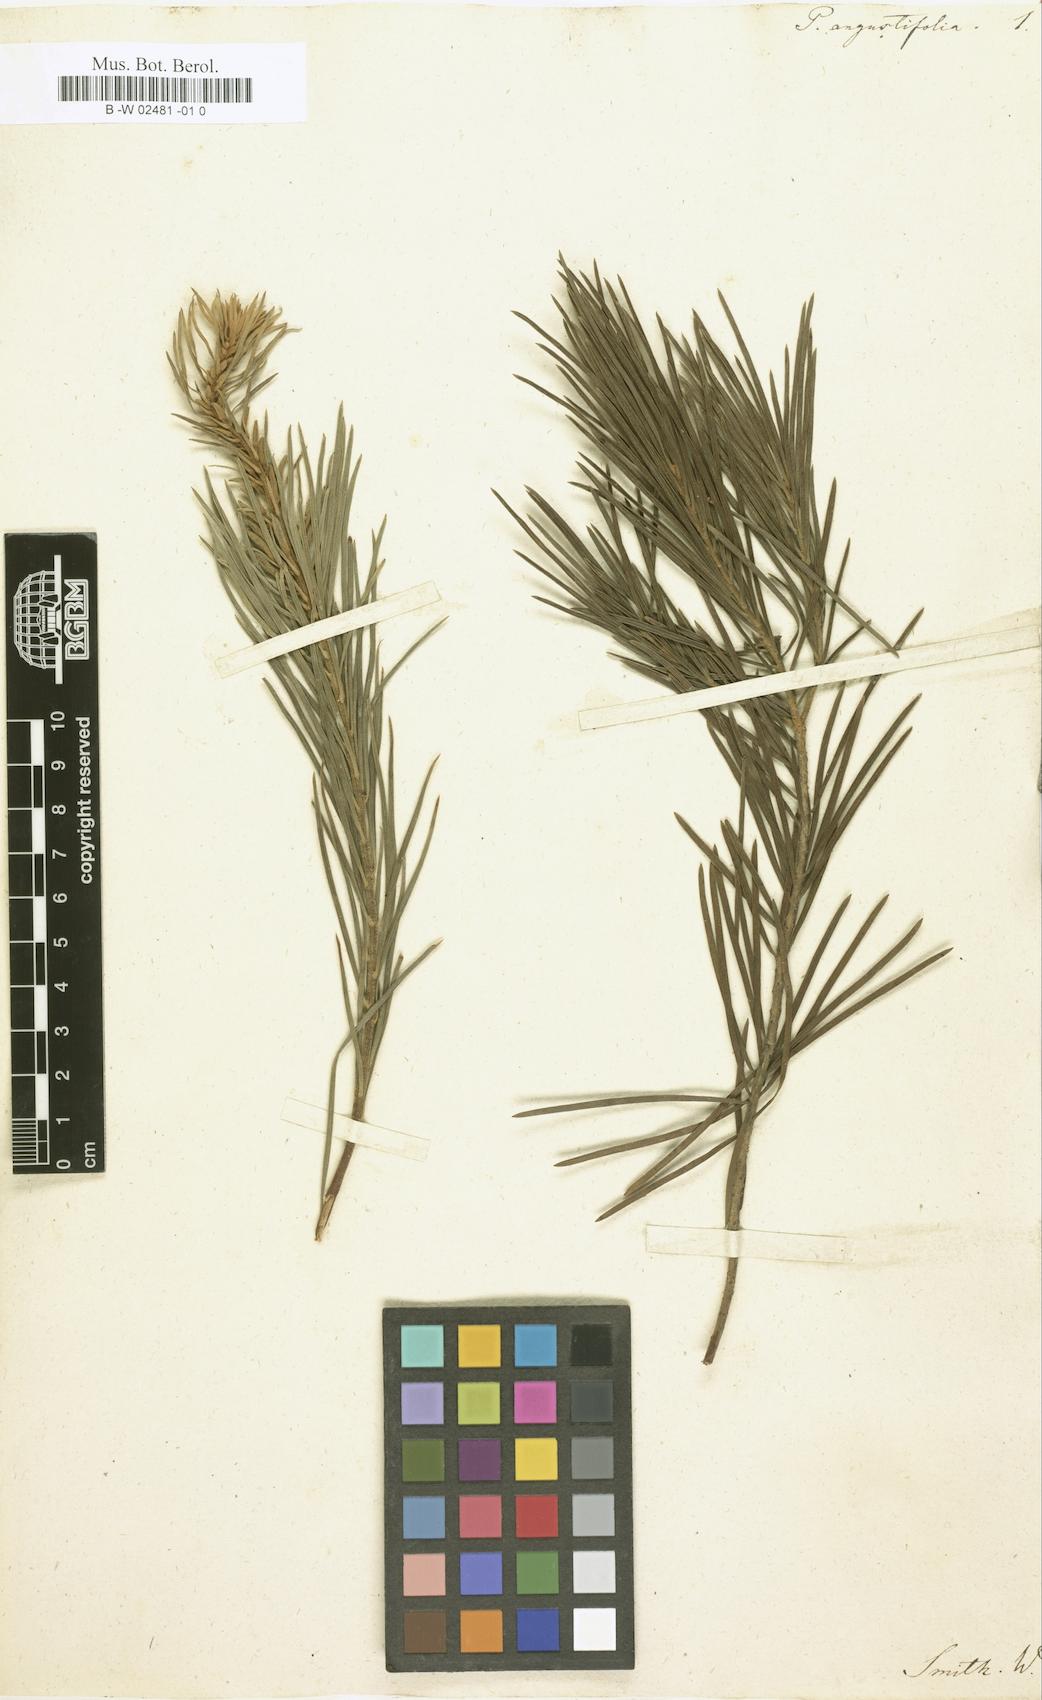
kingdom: Plantae
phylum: Tracheophyta
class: Magnoliopsida
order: Asterales
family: Asteraceae
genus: Balduina
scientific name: Balduina angustifolia
